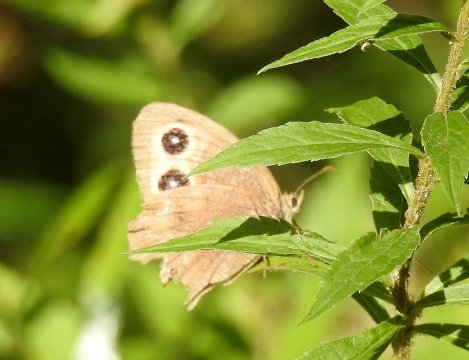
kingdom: Animalia
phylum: Arthropoda
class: Insecta
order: Lepidoptera
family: Nymphalidae
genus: Cercyonis
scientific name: Cercyonis pegala
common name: Common Wood-Nymph
